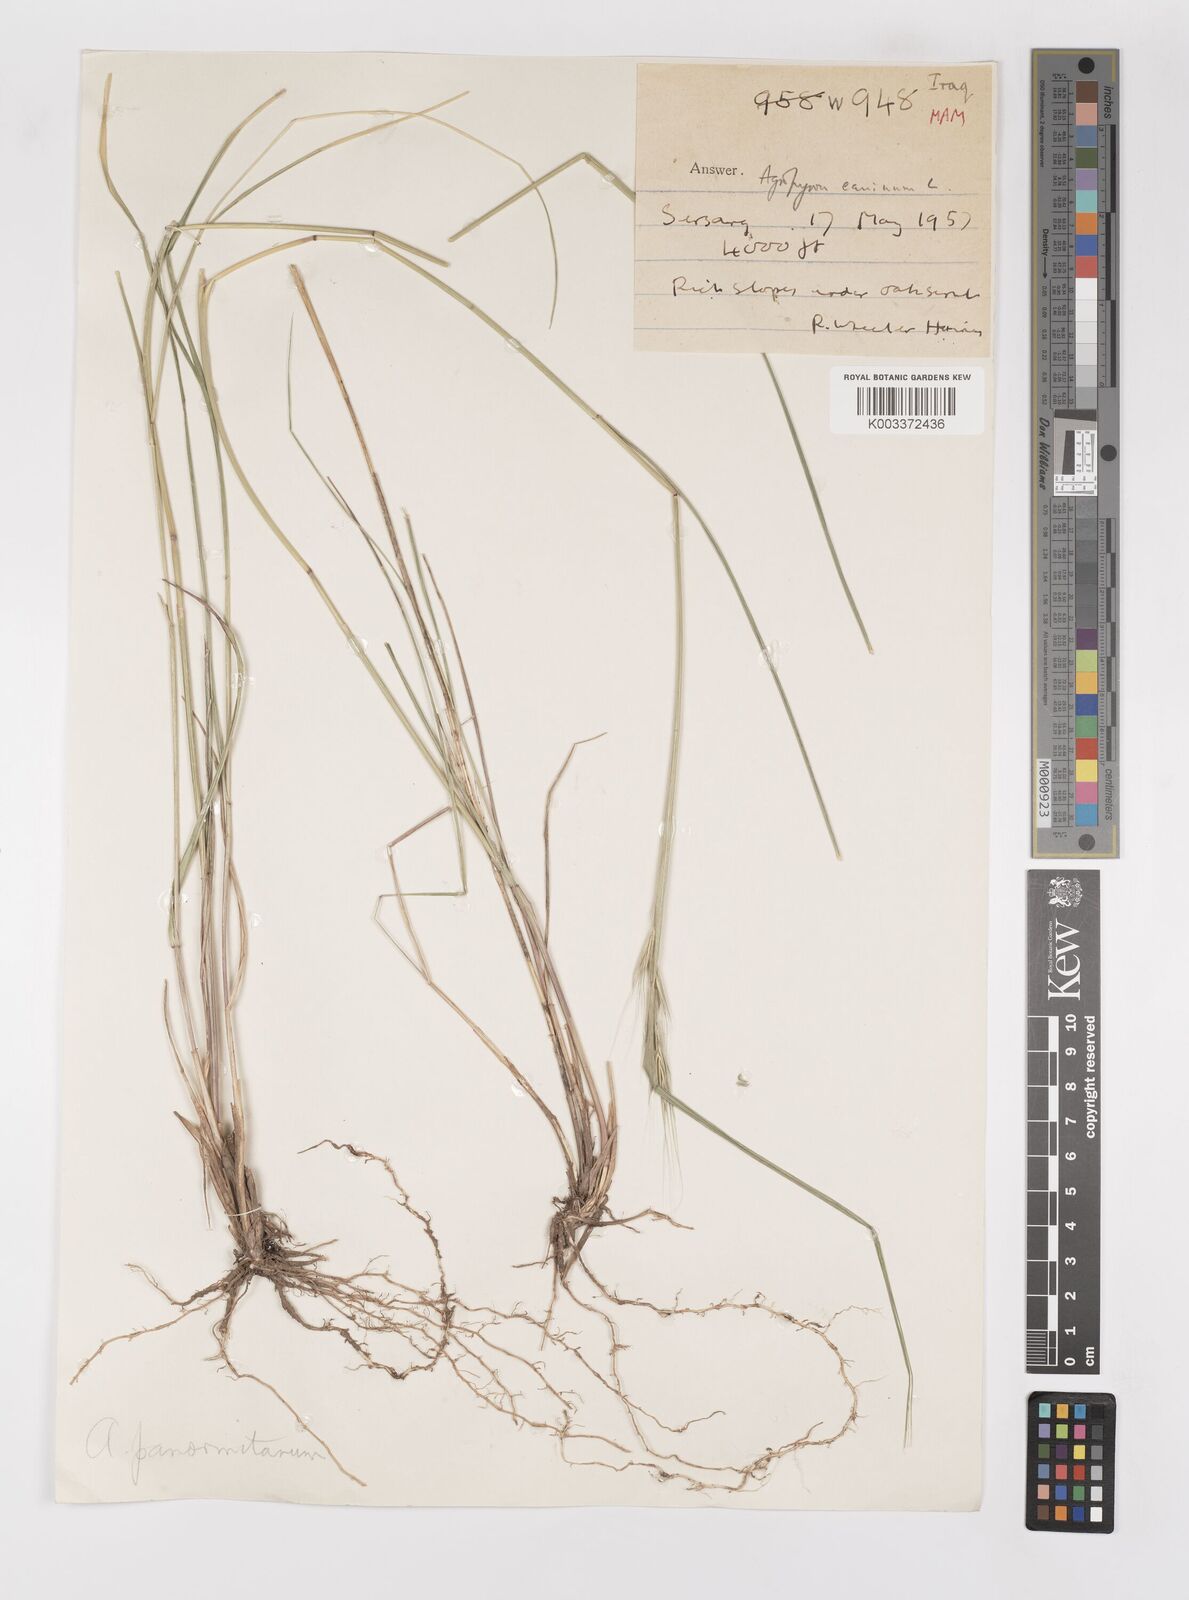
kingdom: Plantae
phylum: Tracheophyta
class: Liliopsida
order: Poales
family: Poaceae
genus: Elymus
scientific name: Elymus panormitanus
